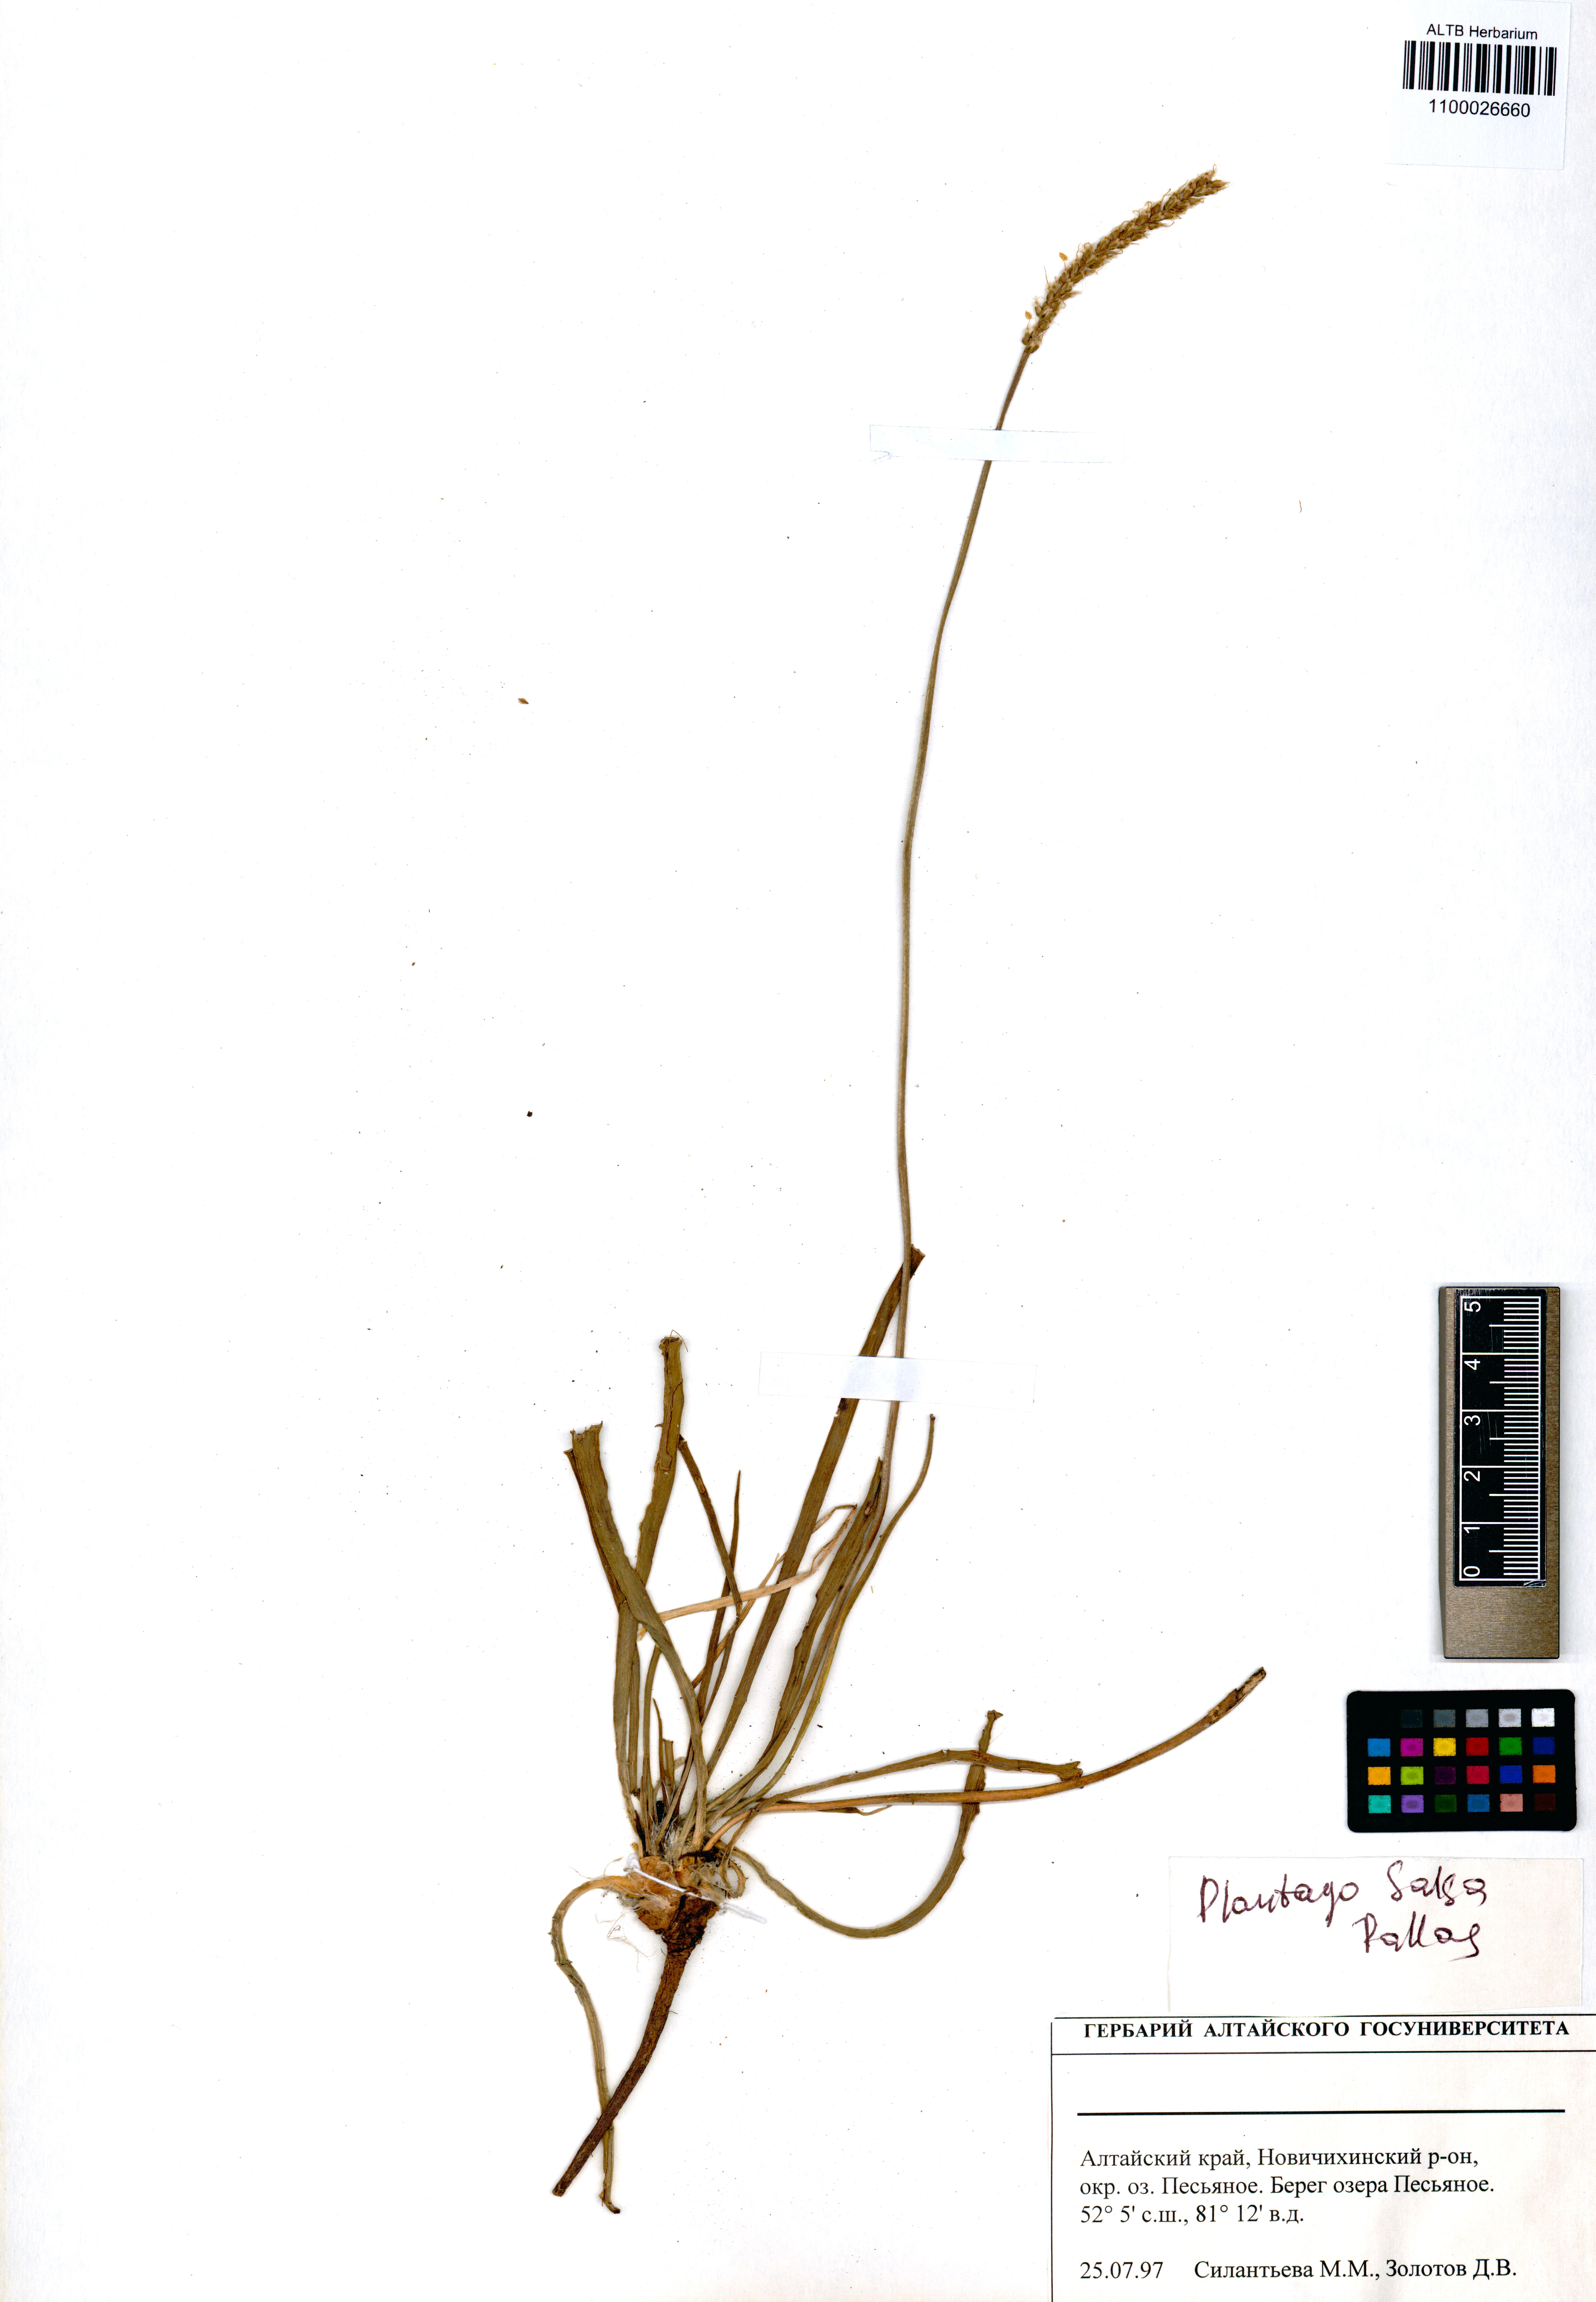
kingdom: Plantae
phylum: Tracheophyta
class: Magnoliopsida
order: Lamiales
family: Plantaginaceae
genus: Plantago
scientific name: Plantago salsa
